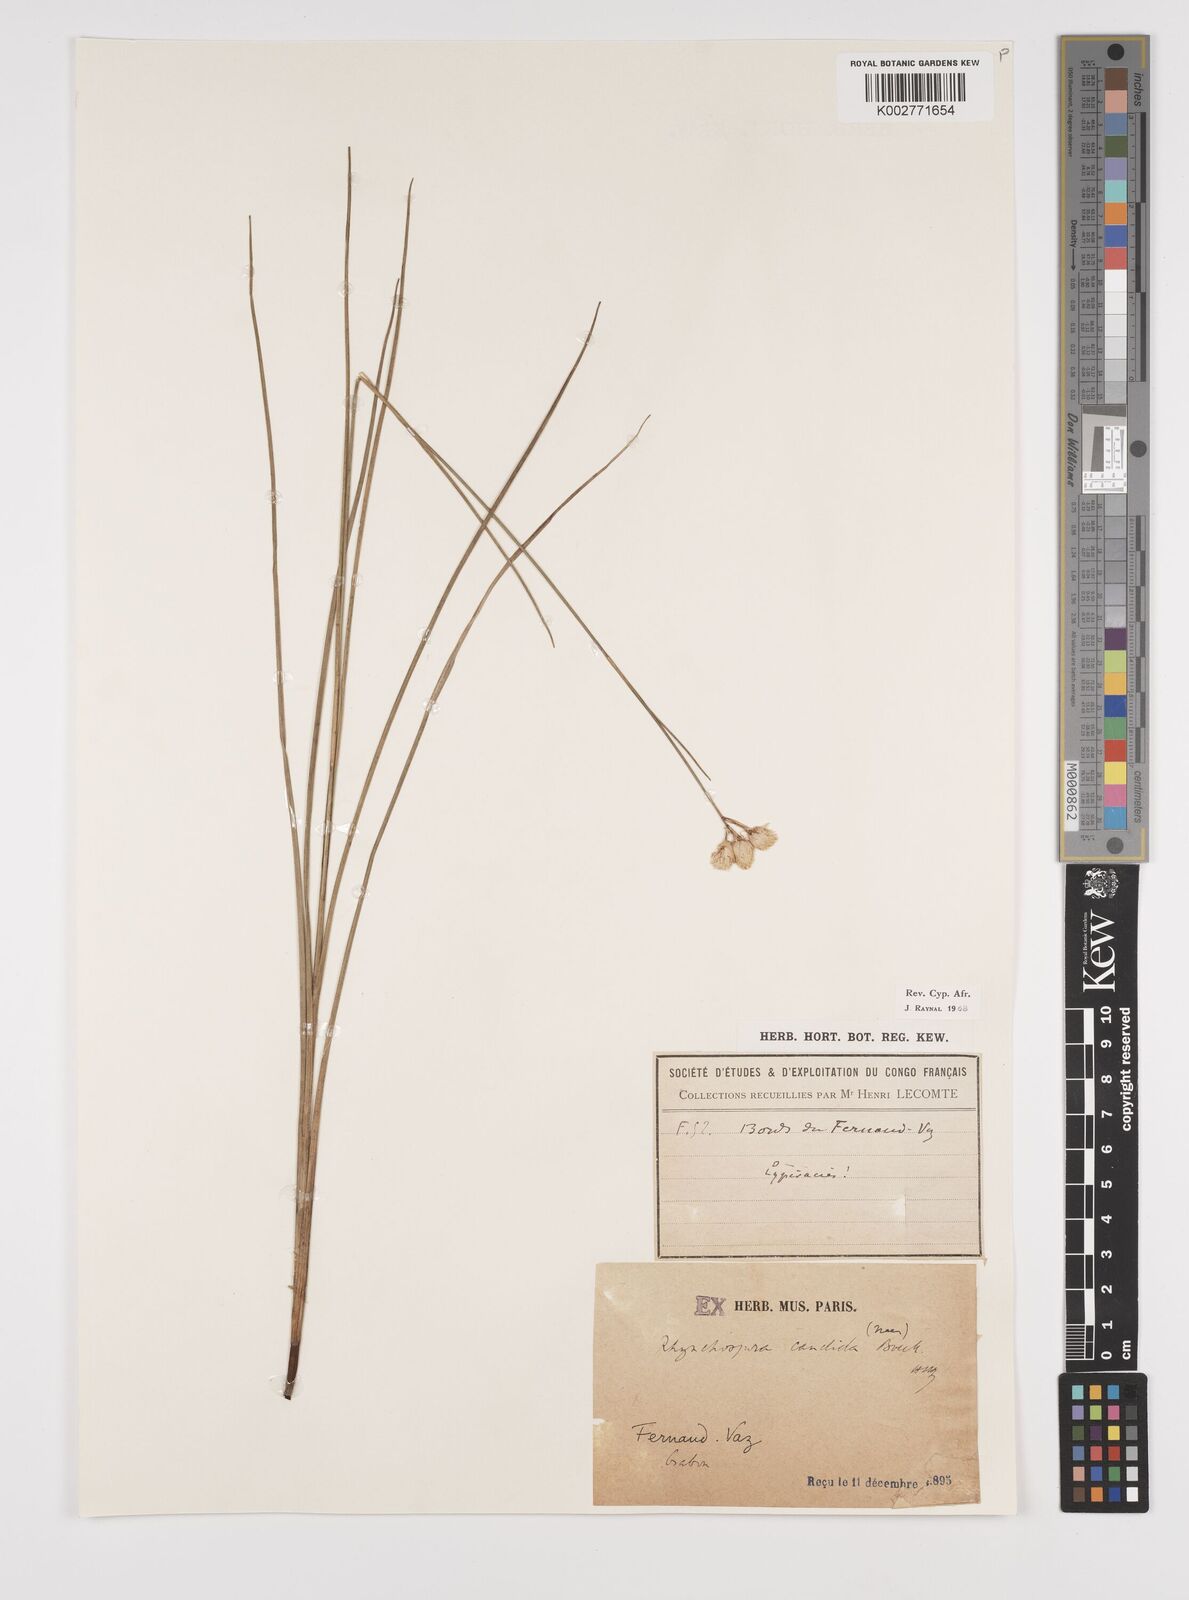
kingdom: Plantae
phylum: Tracheophyta
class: Liliopsida
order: Poales
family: Cyperaceae
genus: Rhynchospora
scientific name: Rhynchospora candida
